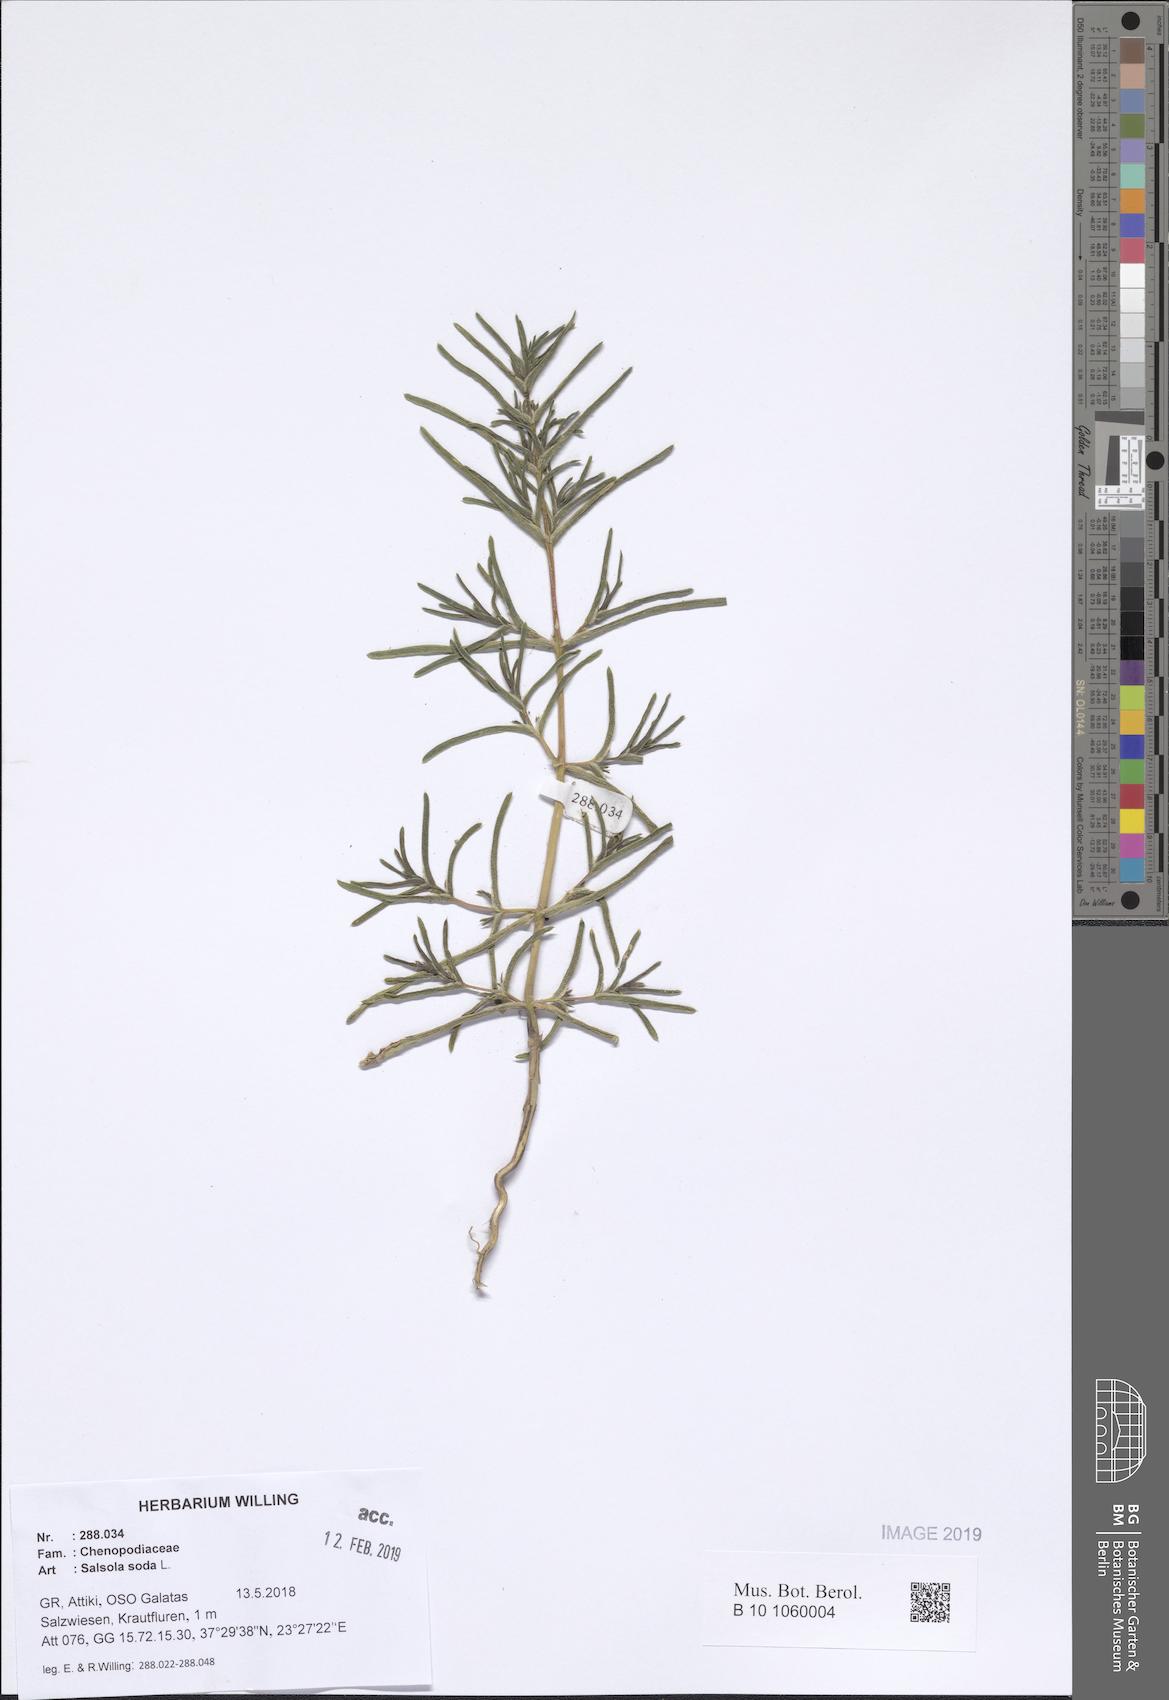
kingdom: Plantae
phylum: Tracheophyta
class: Magnoliopsida
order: Caryophyllales
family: Amaranthaceae
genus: Soda
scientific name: Soda inermis
